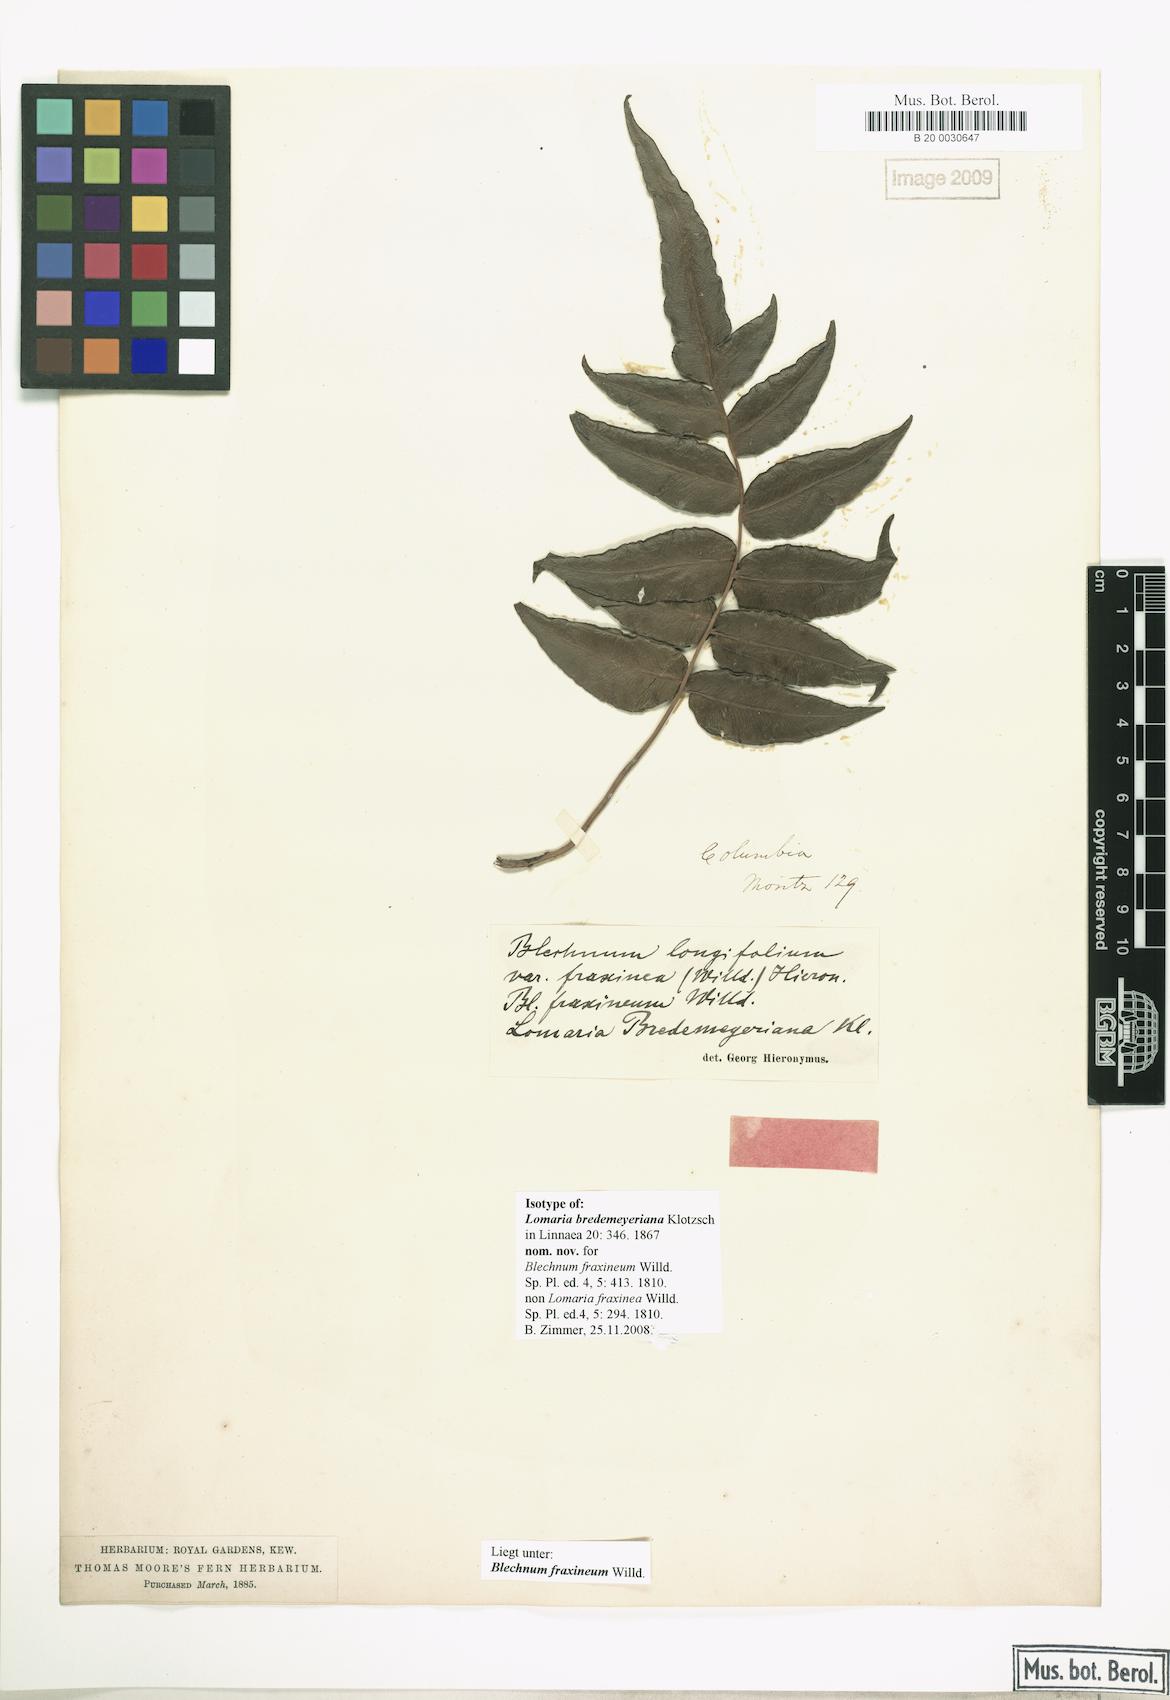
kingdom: Plantae
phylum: Tracheophyta
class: Polypodiopsida
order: Polypodiales
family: Blechnaceae
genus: Blechnum
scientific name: Blechnum gracile
